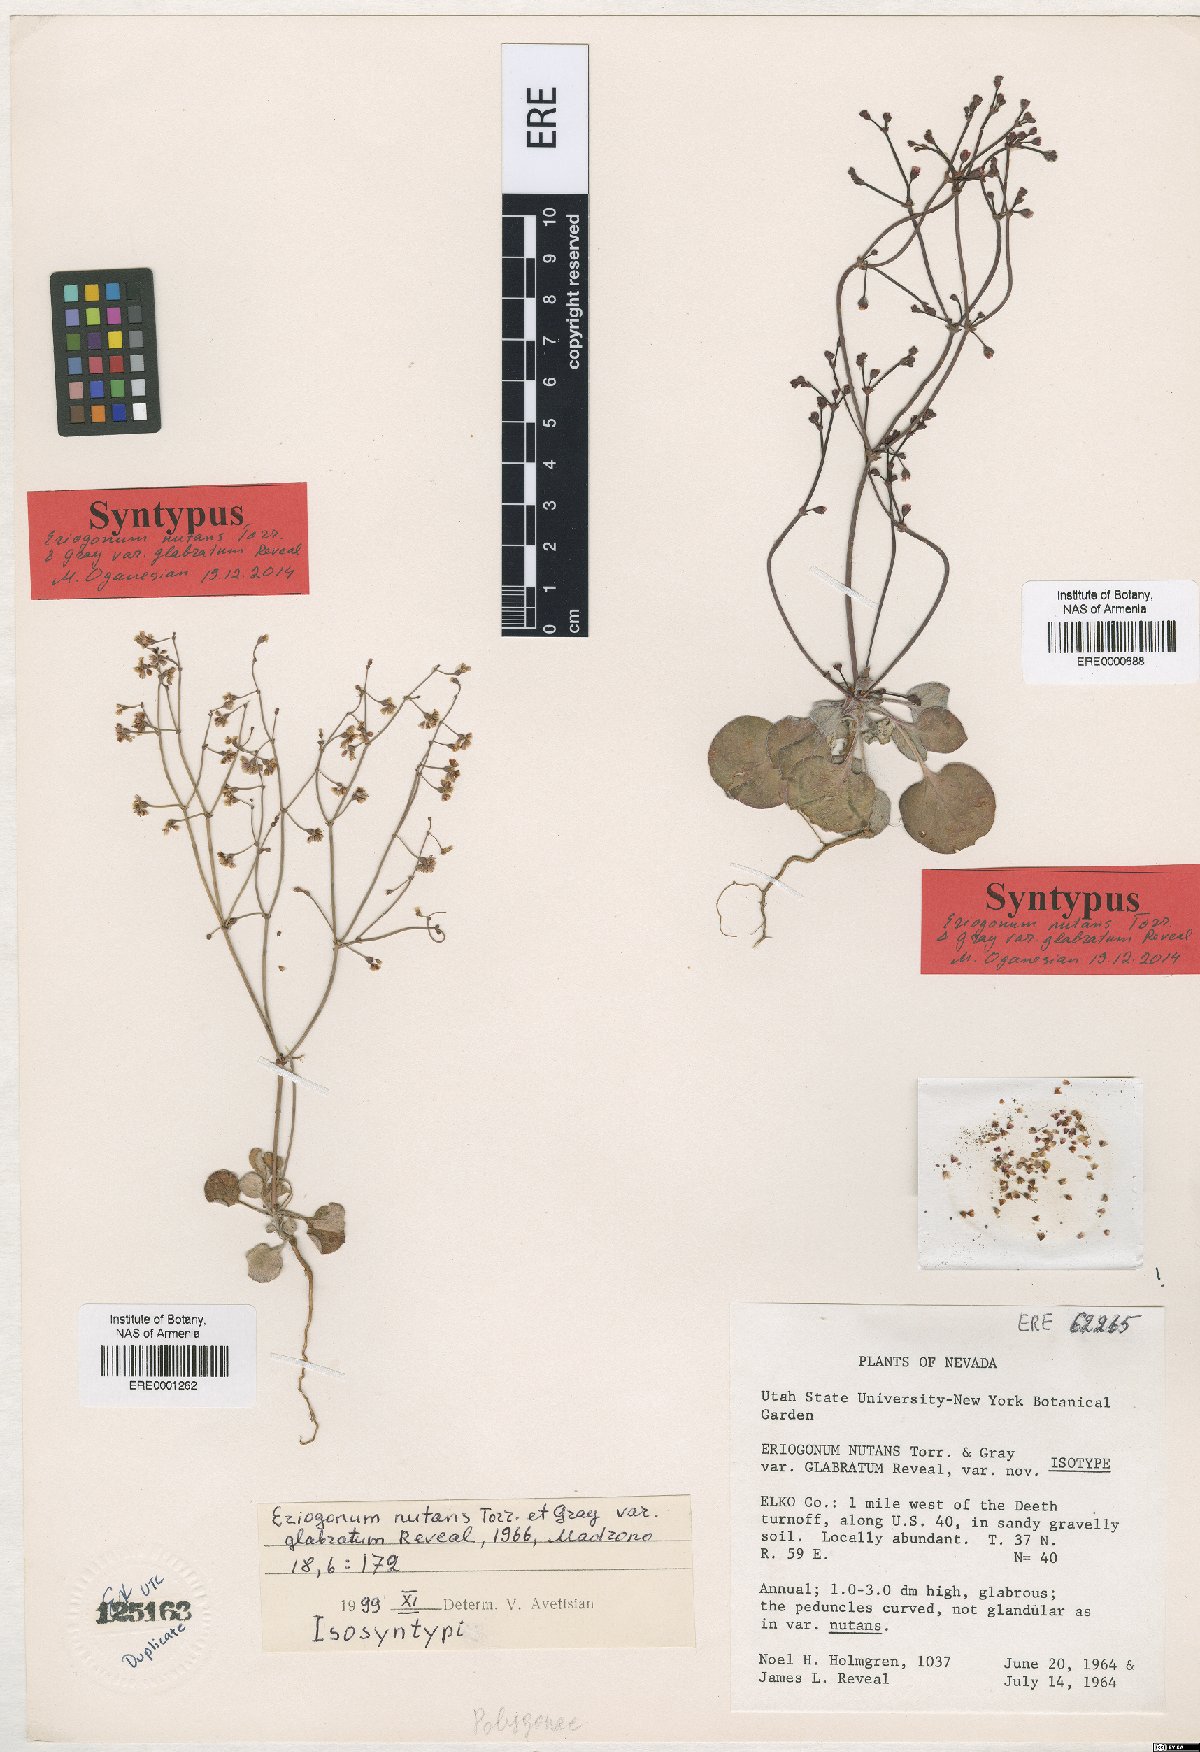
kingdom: Plantae
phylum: Tracheophyta
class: Magnoliopsida
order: Caryophyllales
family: Polygonaceae
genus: Eriogonum
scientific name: Eriogonum nutans
